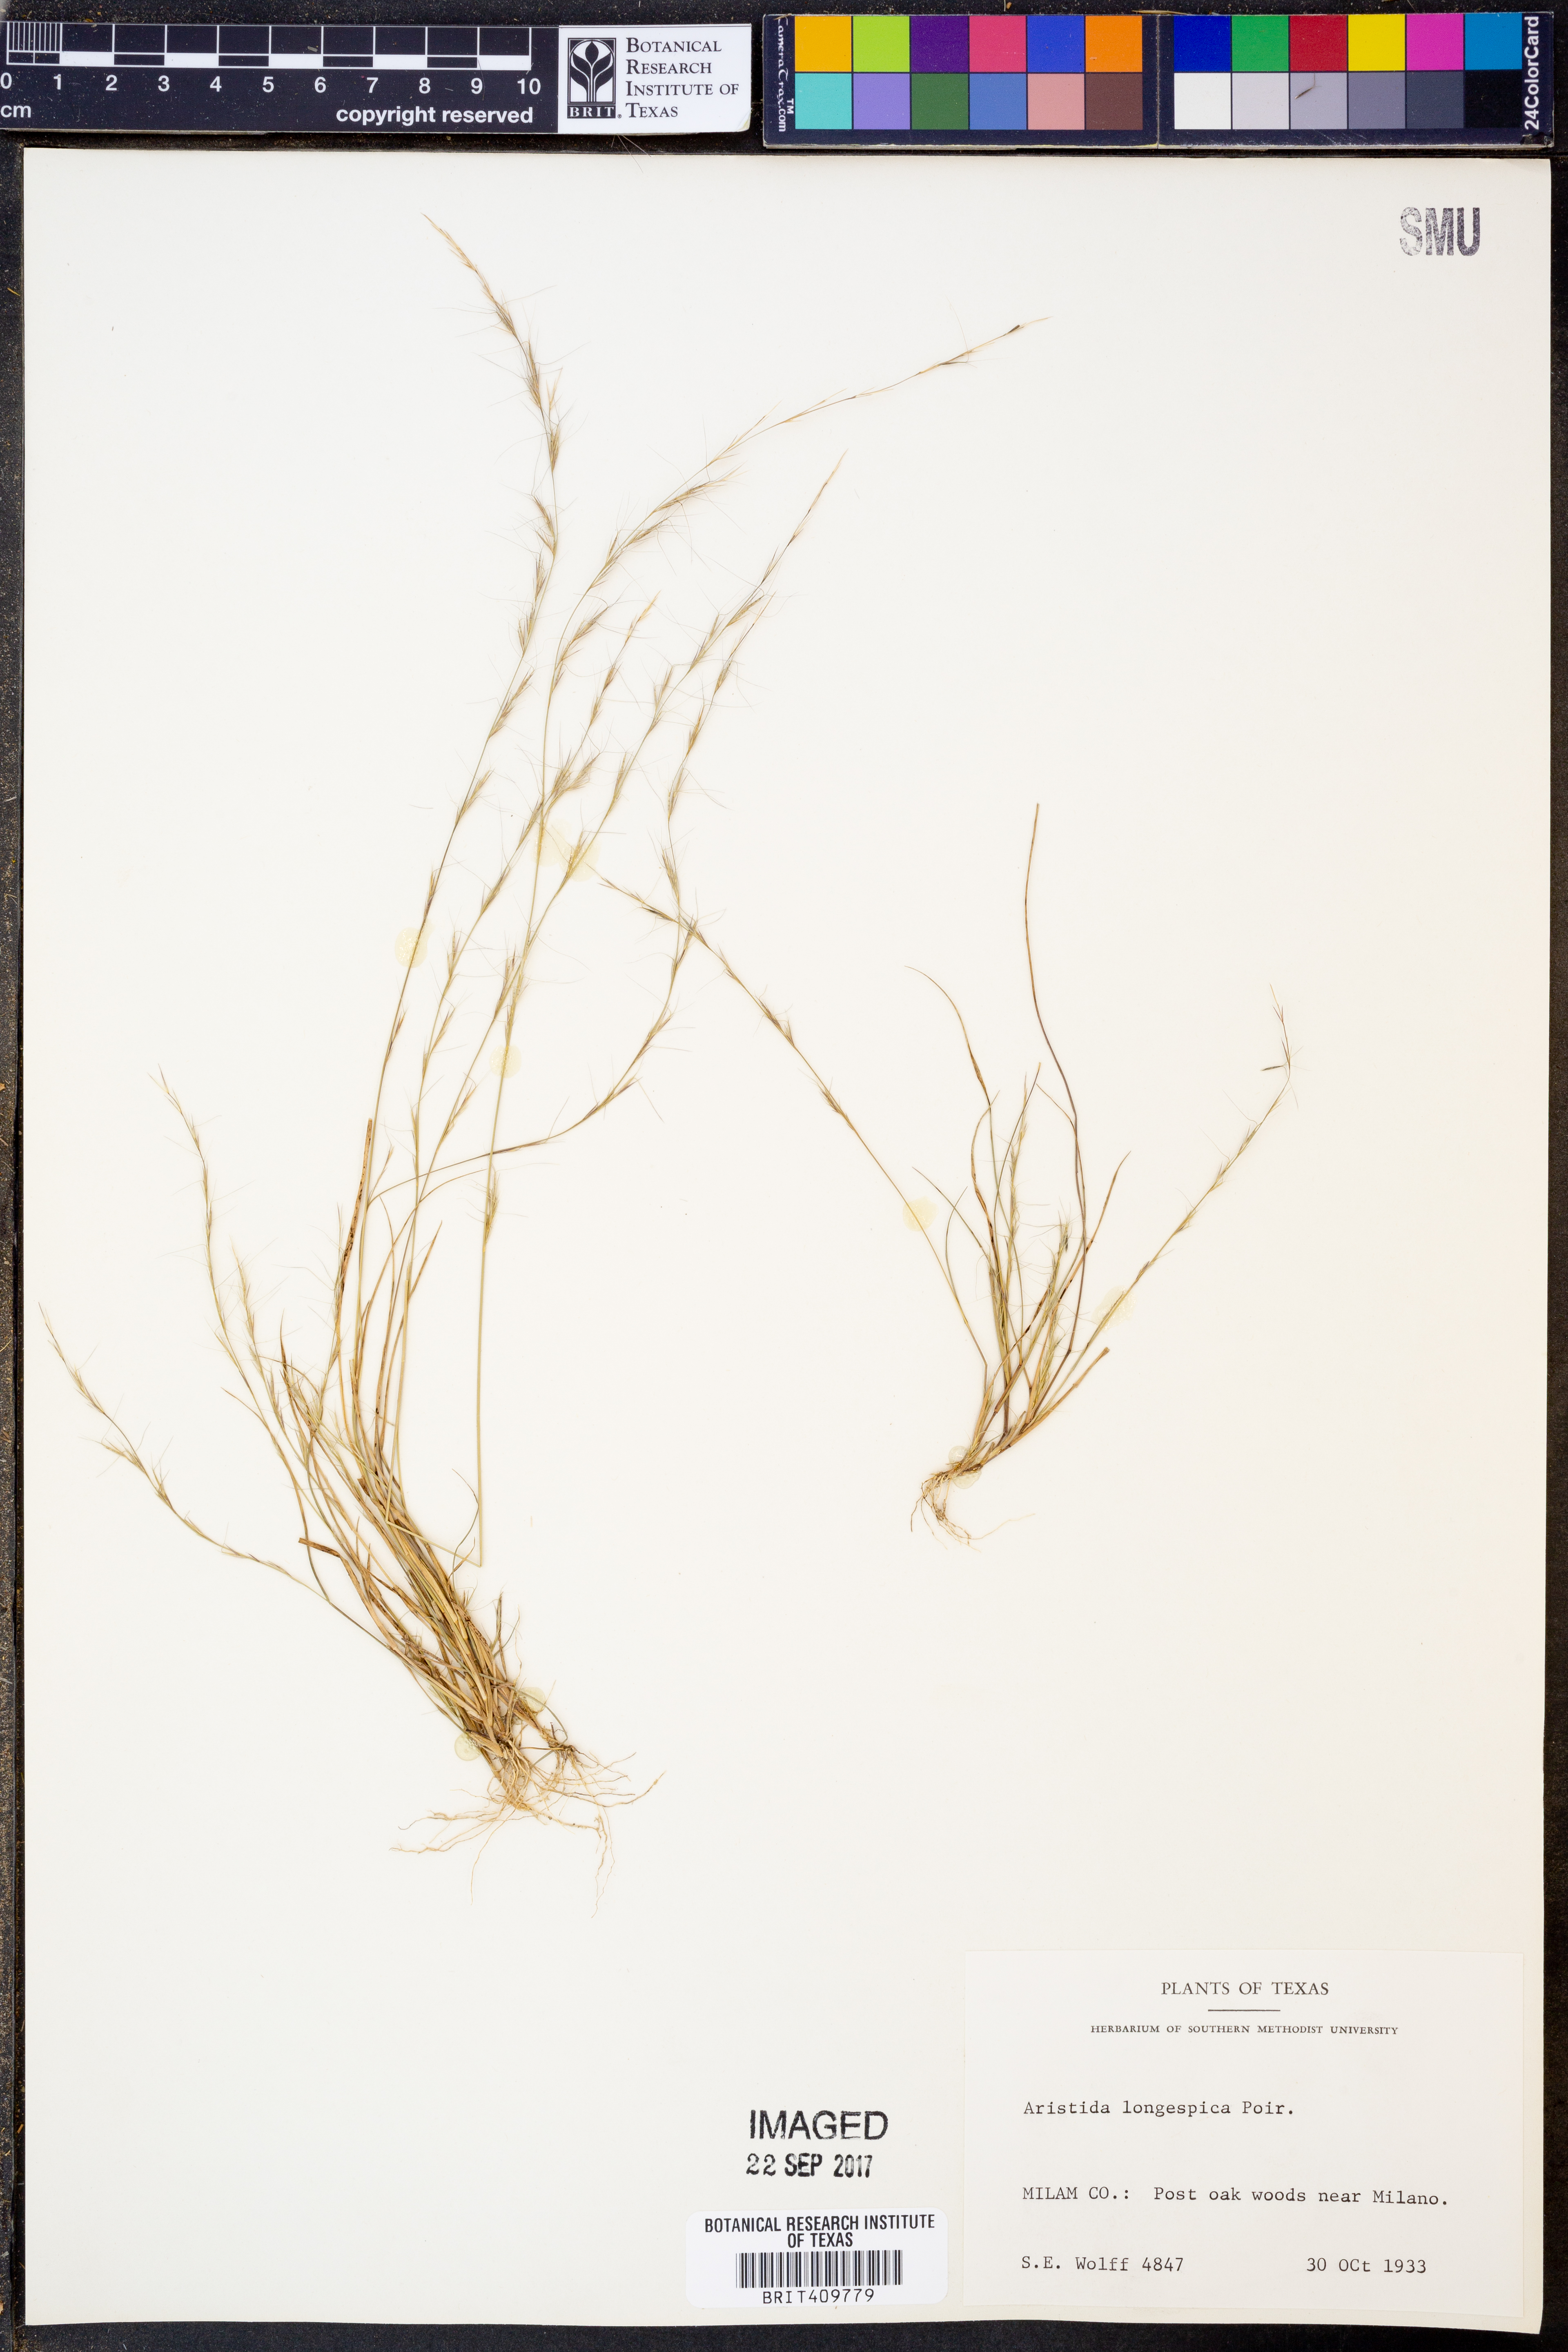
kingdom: Plantae
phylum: Tracheophyta
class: Liliopsida
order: Poales
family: Poaceae
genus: Aristida
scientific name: Aristida longespica
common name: Long-spiked triple-awned grass
